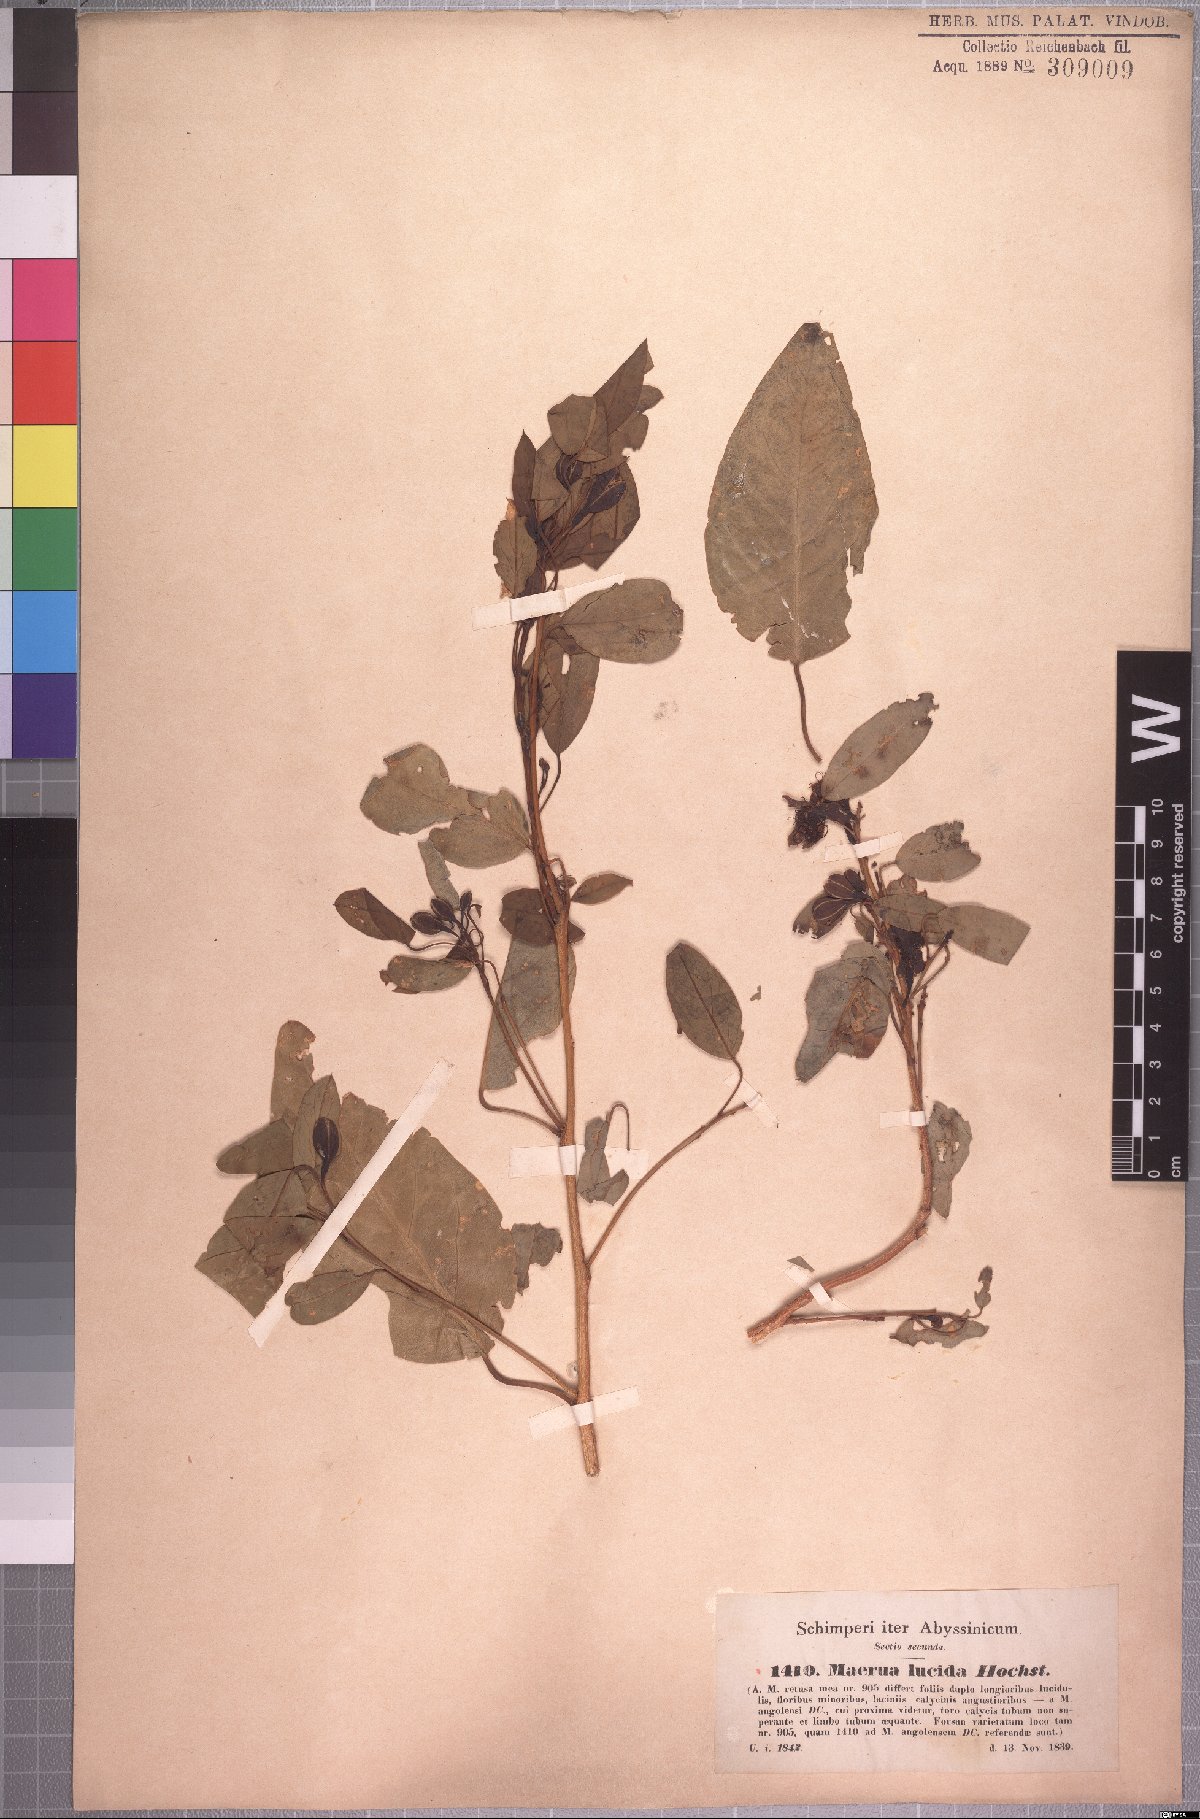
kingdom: Plantae
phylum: Tracheophyta
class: Magnoliopsida
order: Brassicales
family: Capparaceae
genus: Maerua
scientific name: Maerua angolensis
